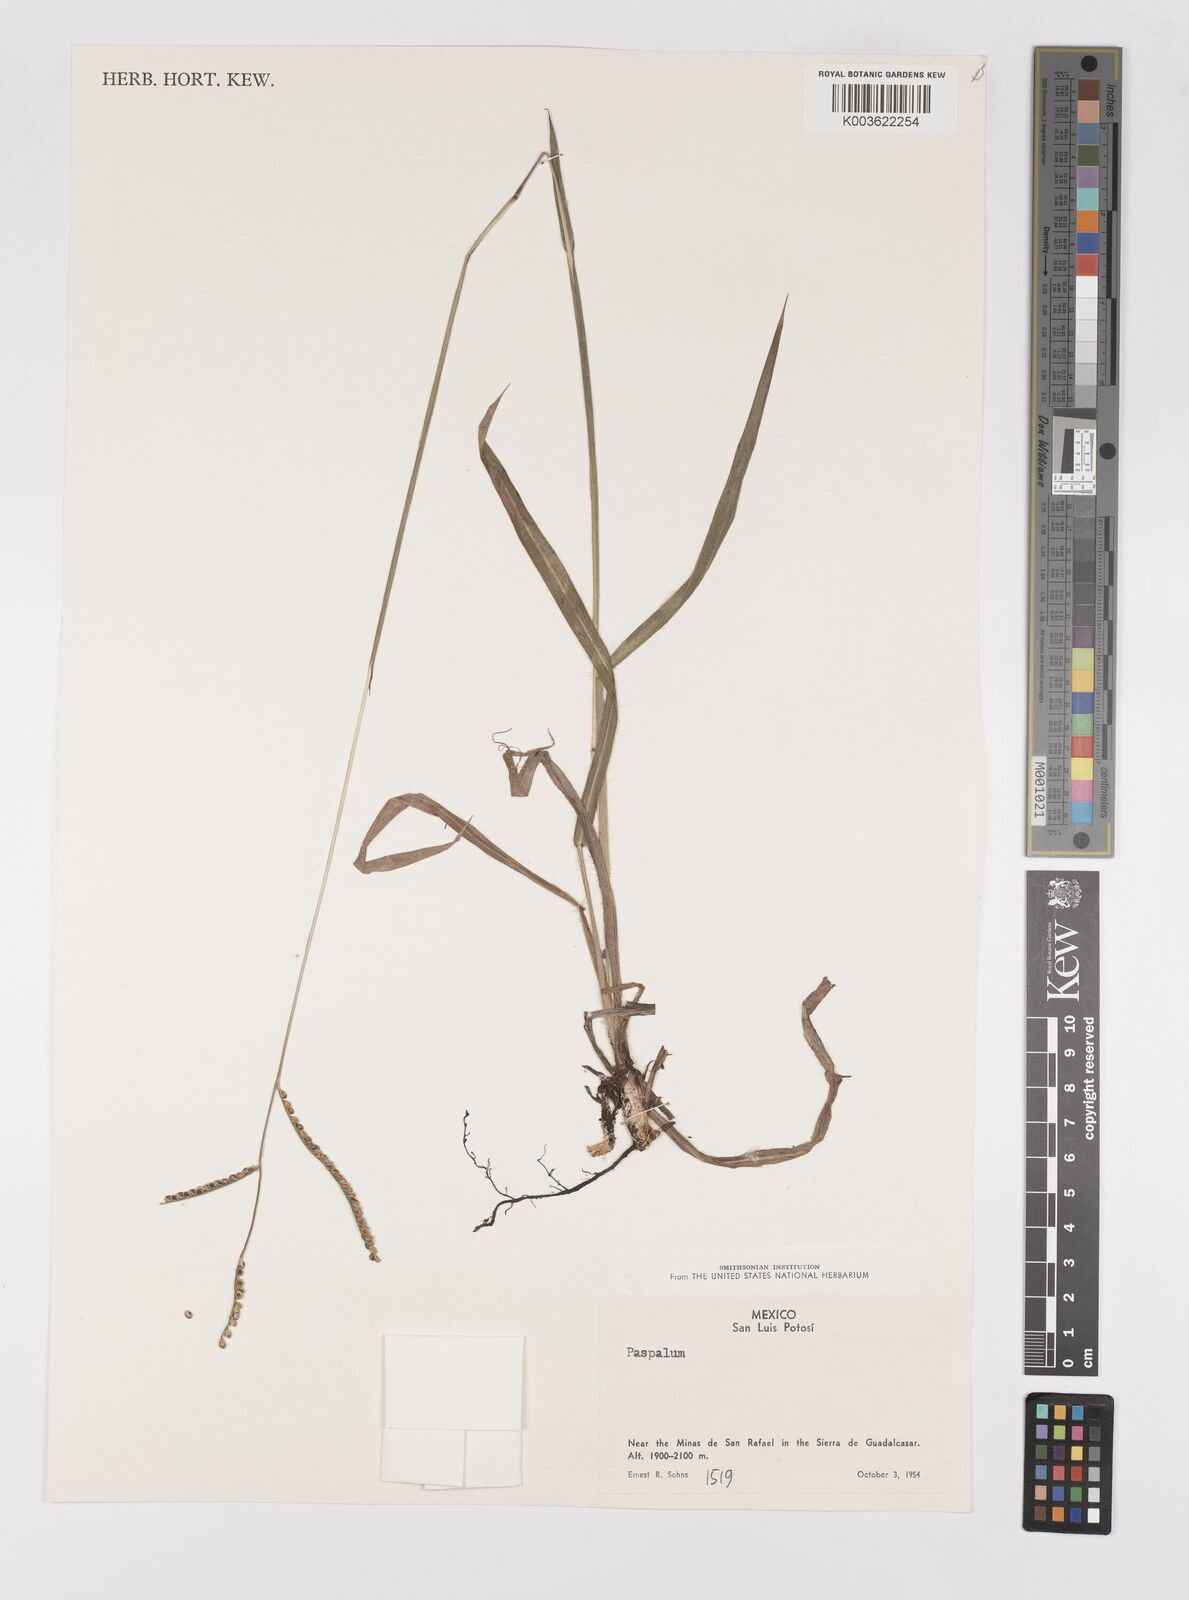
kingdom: Plantae
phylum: Tracheophyta
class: Liliopsida
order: Poales
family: Poaceae
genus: Paspalum
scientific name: Paspalum
